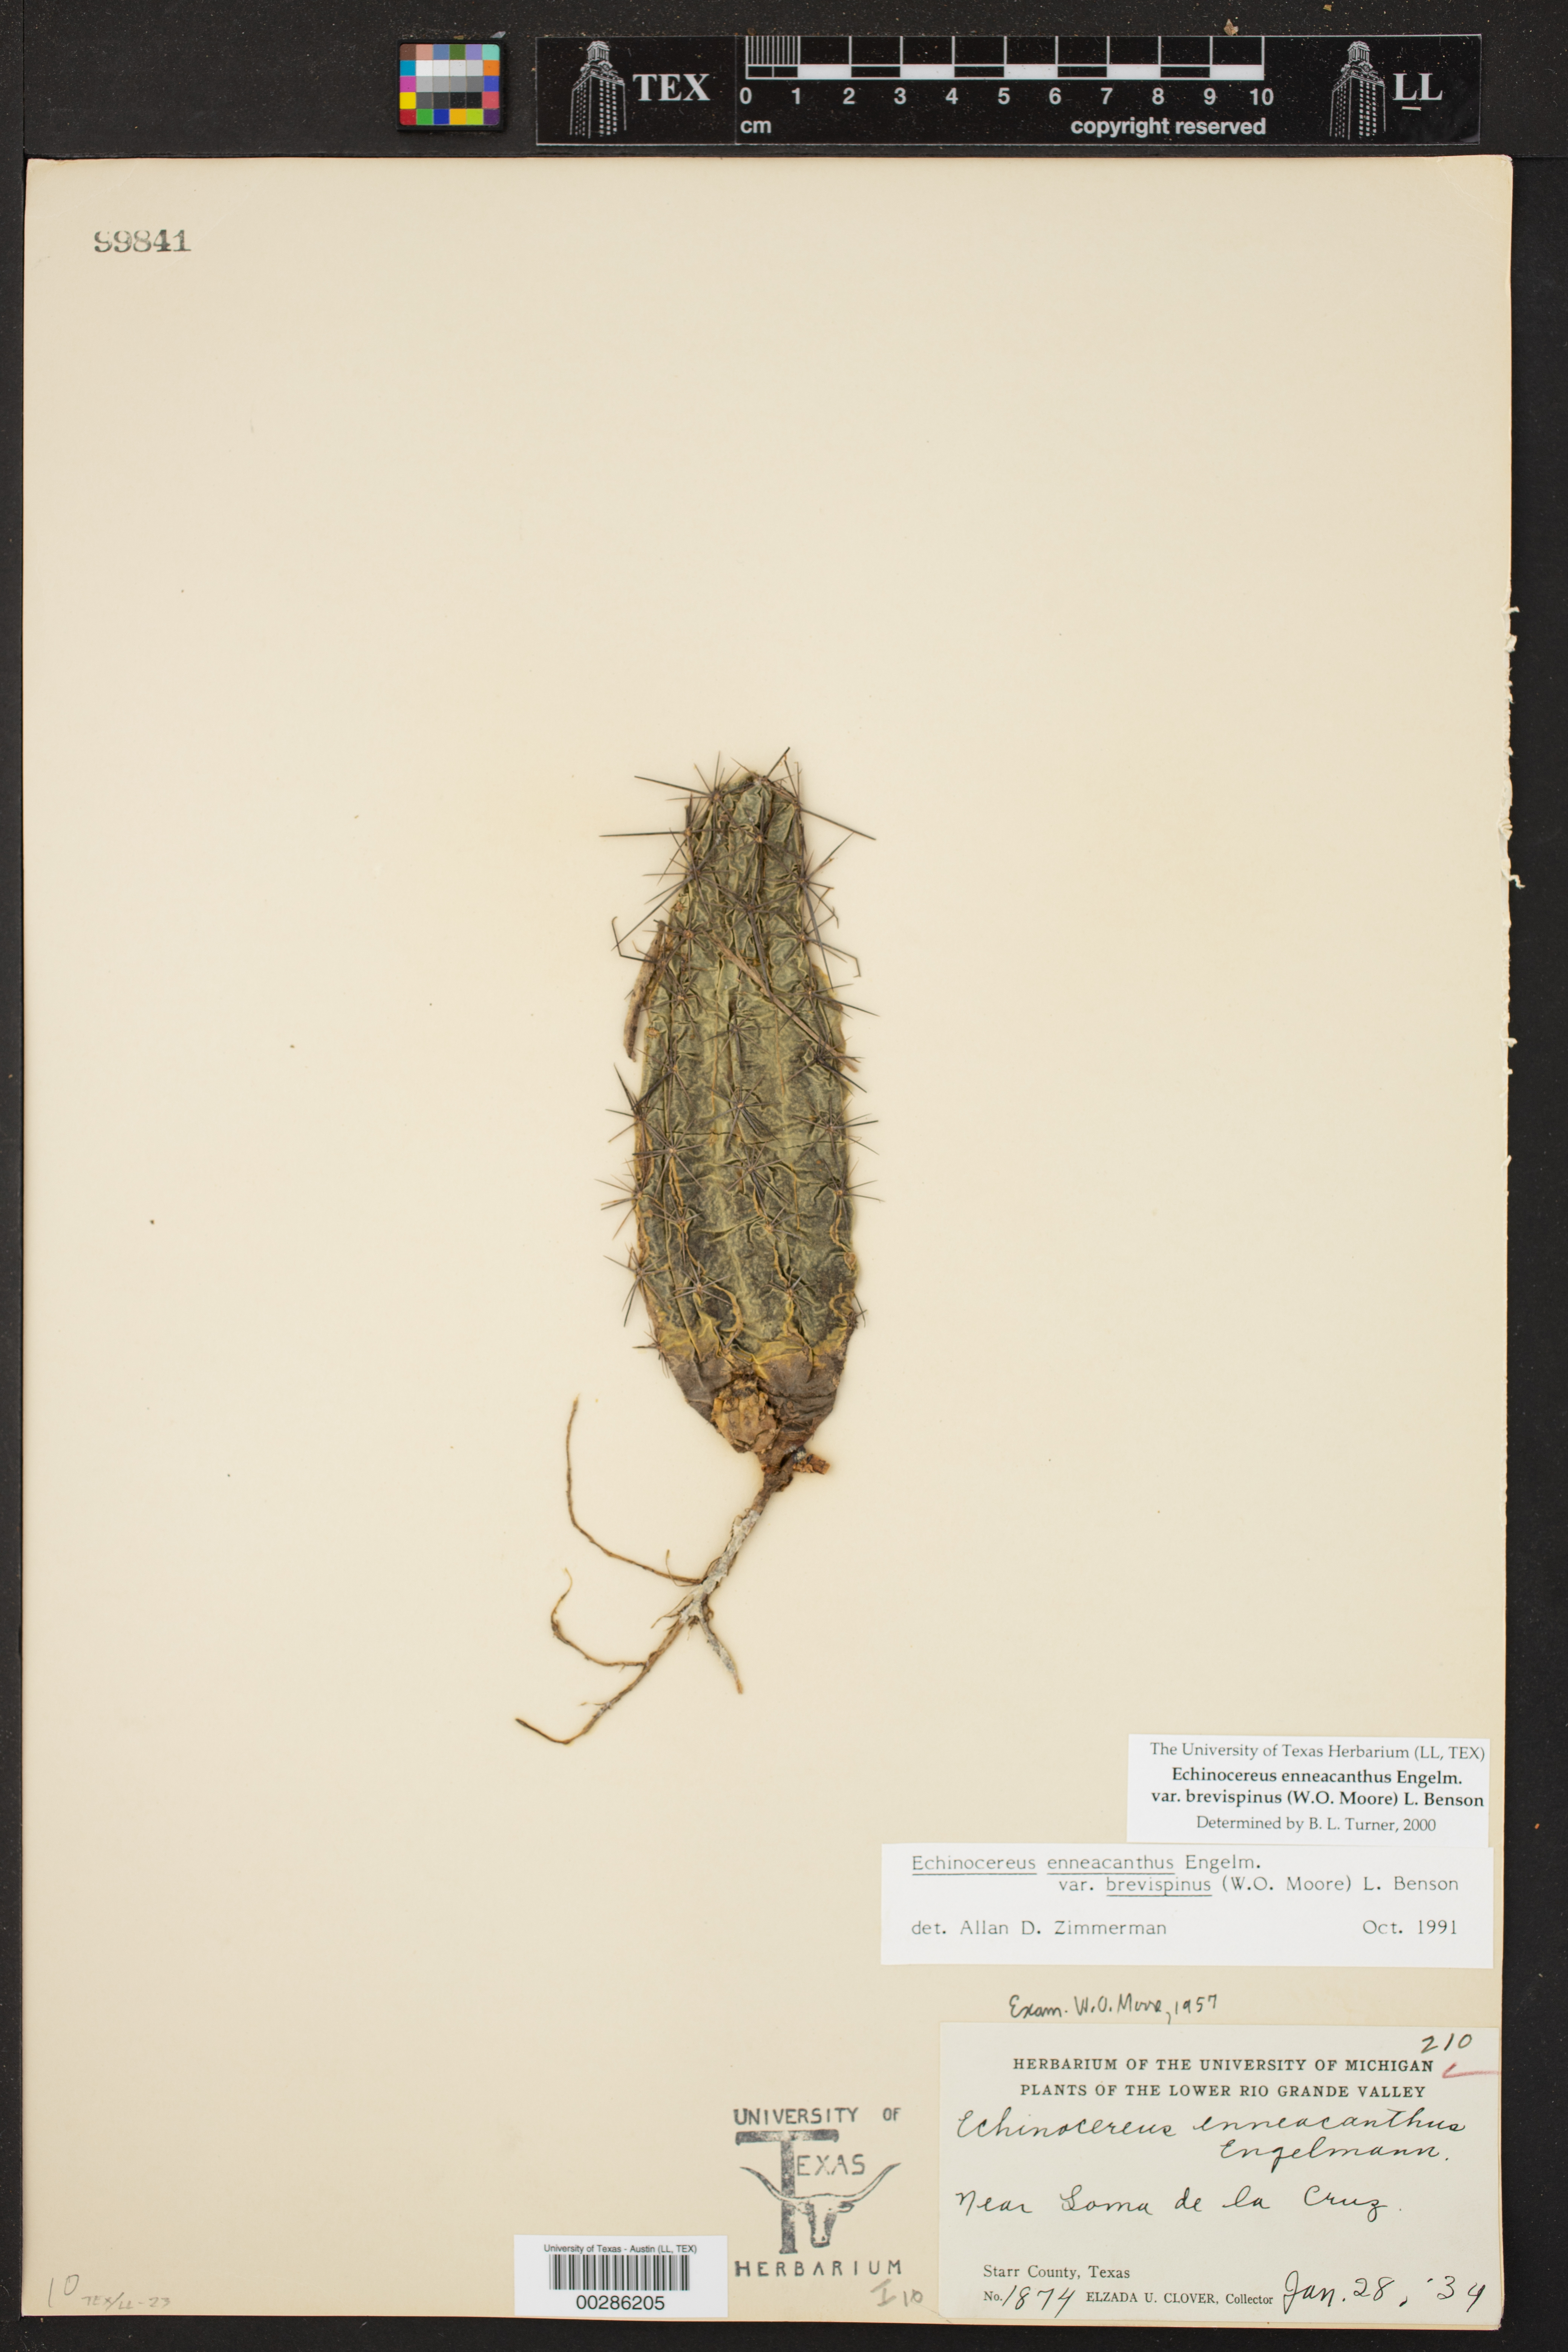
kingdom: Plantae
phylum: Tracheophyta
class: Magnoliopsida
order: Caryophyllales
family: Cactaceae
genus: Echinocereus
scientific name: Echinocereus enneacanthus
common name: Pitaya
